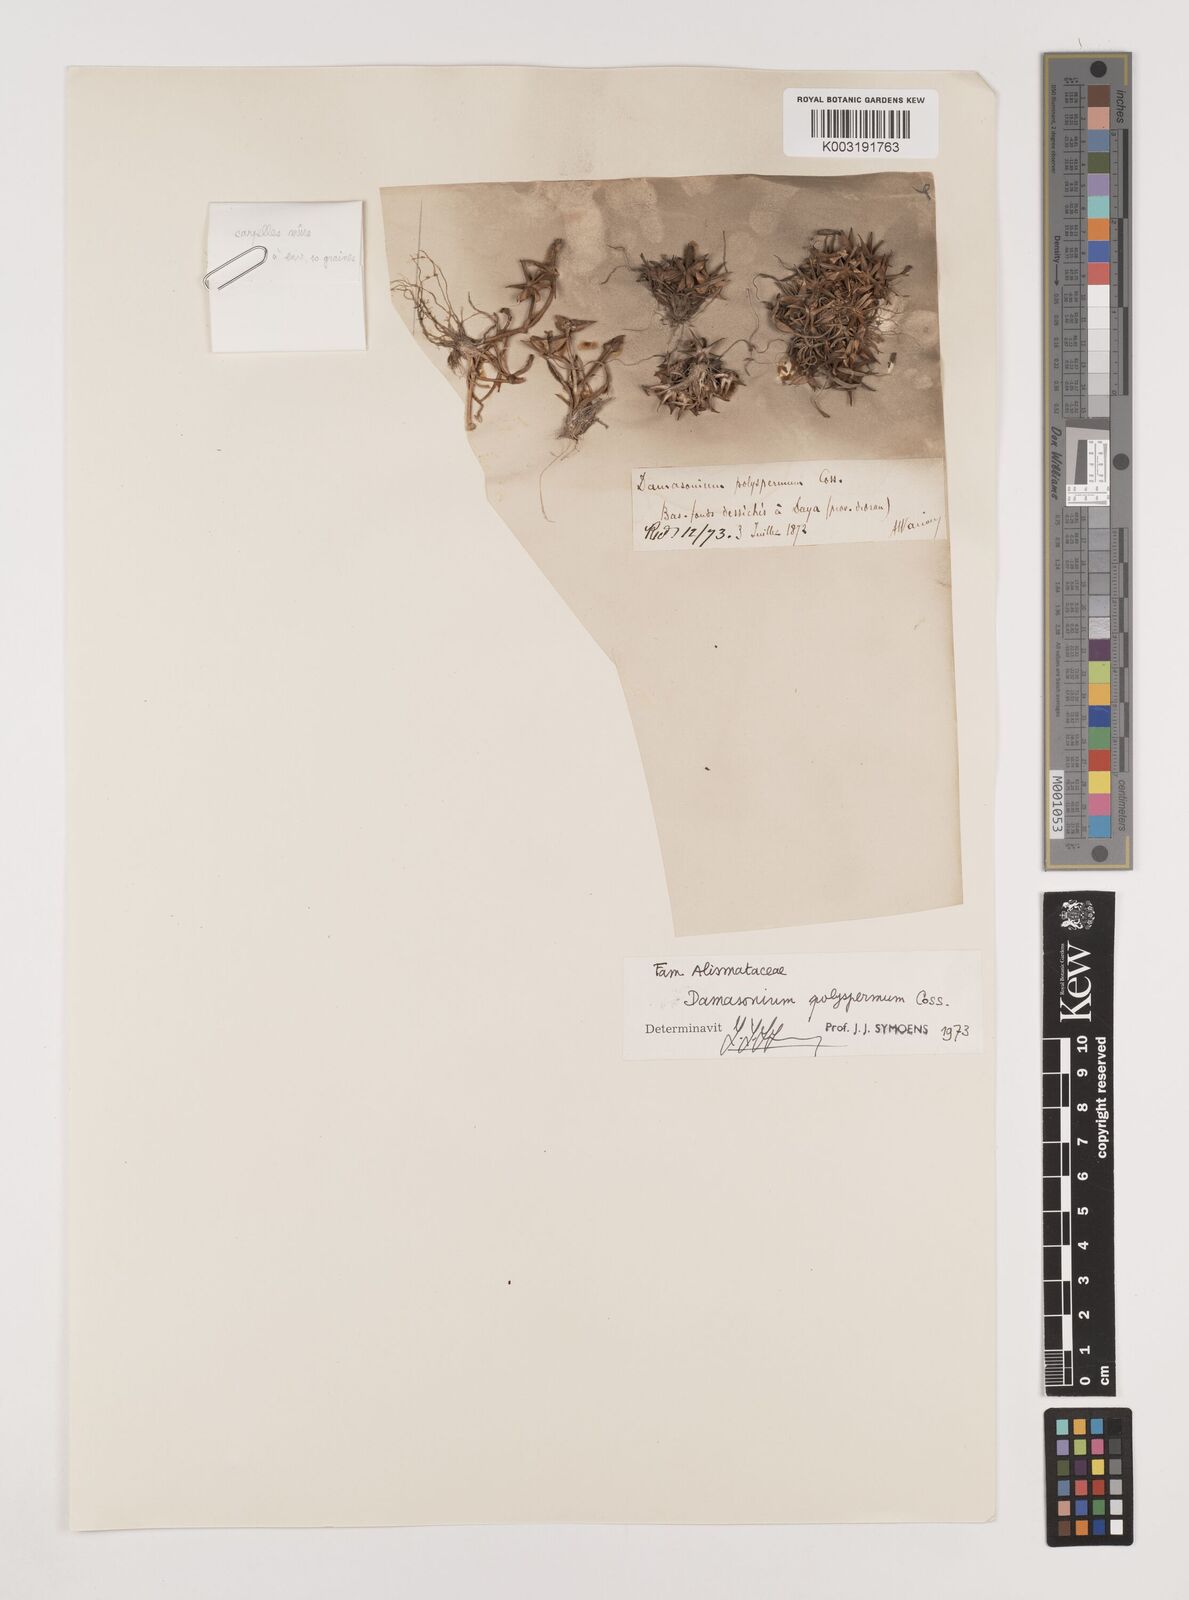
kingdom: Plantae
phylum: Tracheophyta
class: Liliopsida
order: Alismatales
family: Alismataceae
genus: Damasonium
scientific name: Damasonium polyspermum
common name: Starfruit
